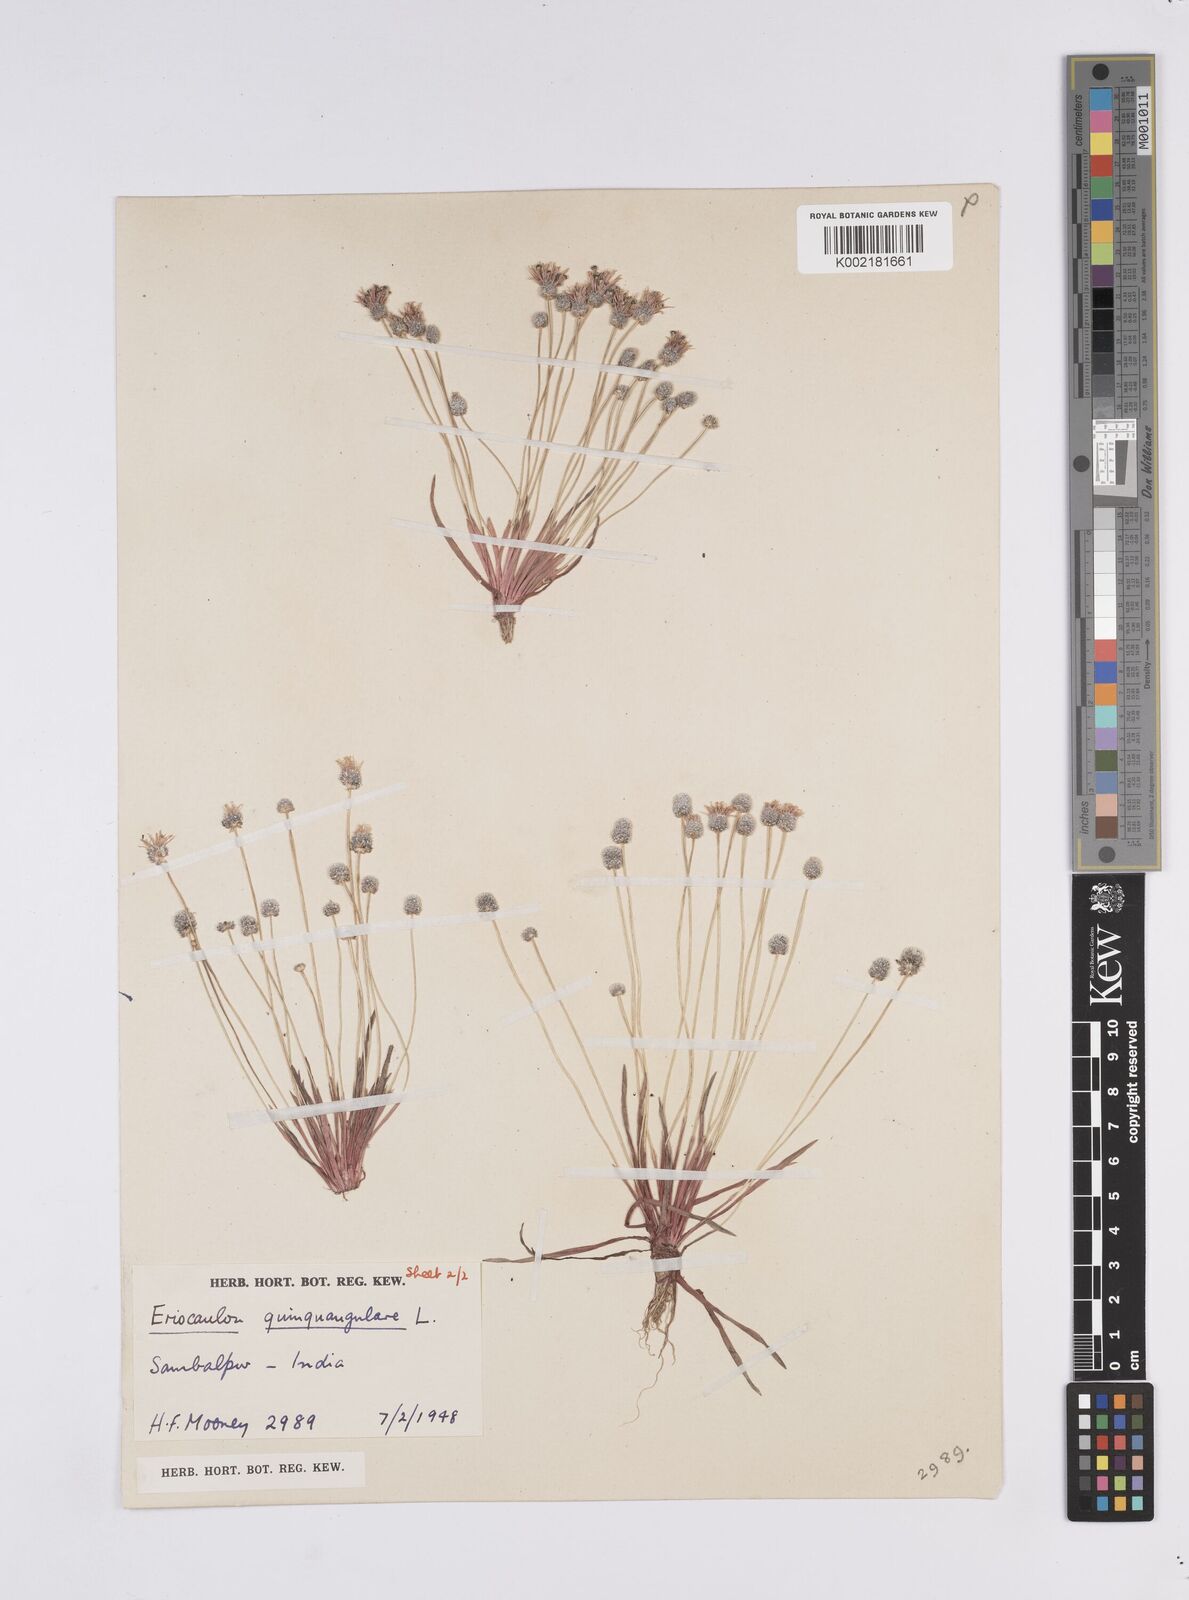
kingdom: Plantae
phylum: Tracheophyta
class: Liliopsida
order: Poales
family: Eriocaulaceae
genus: Eriocaulon
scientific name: Eriocaulon quinquangulare
